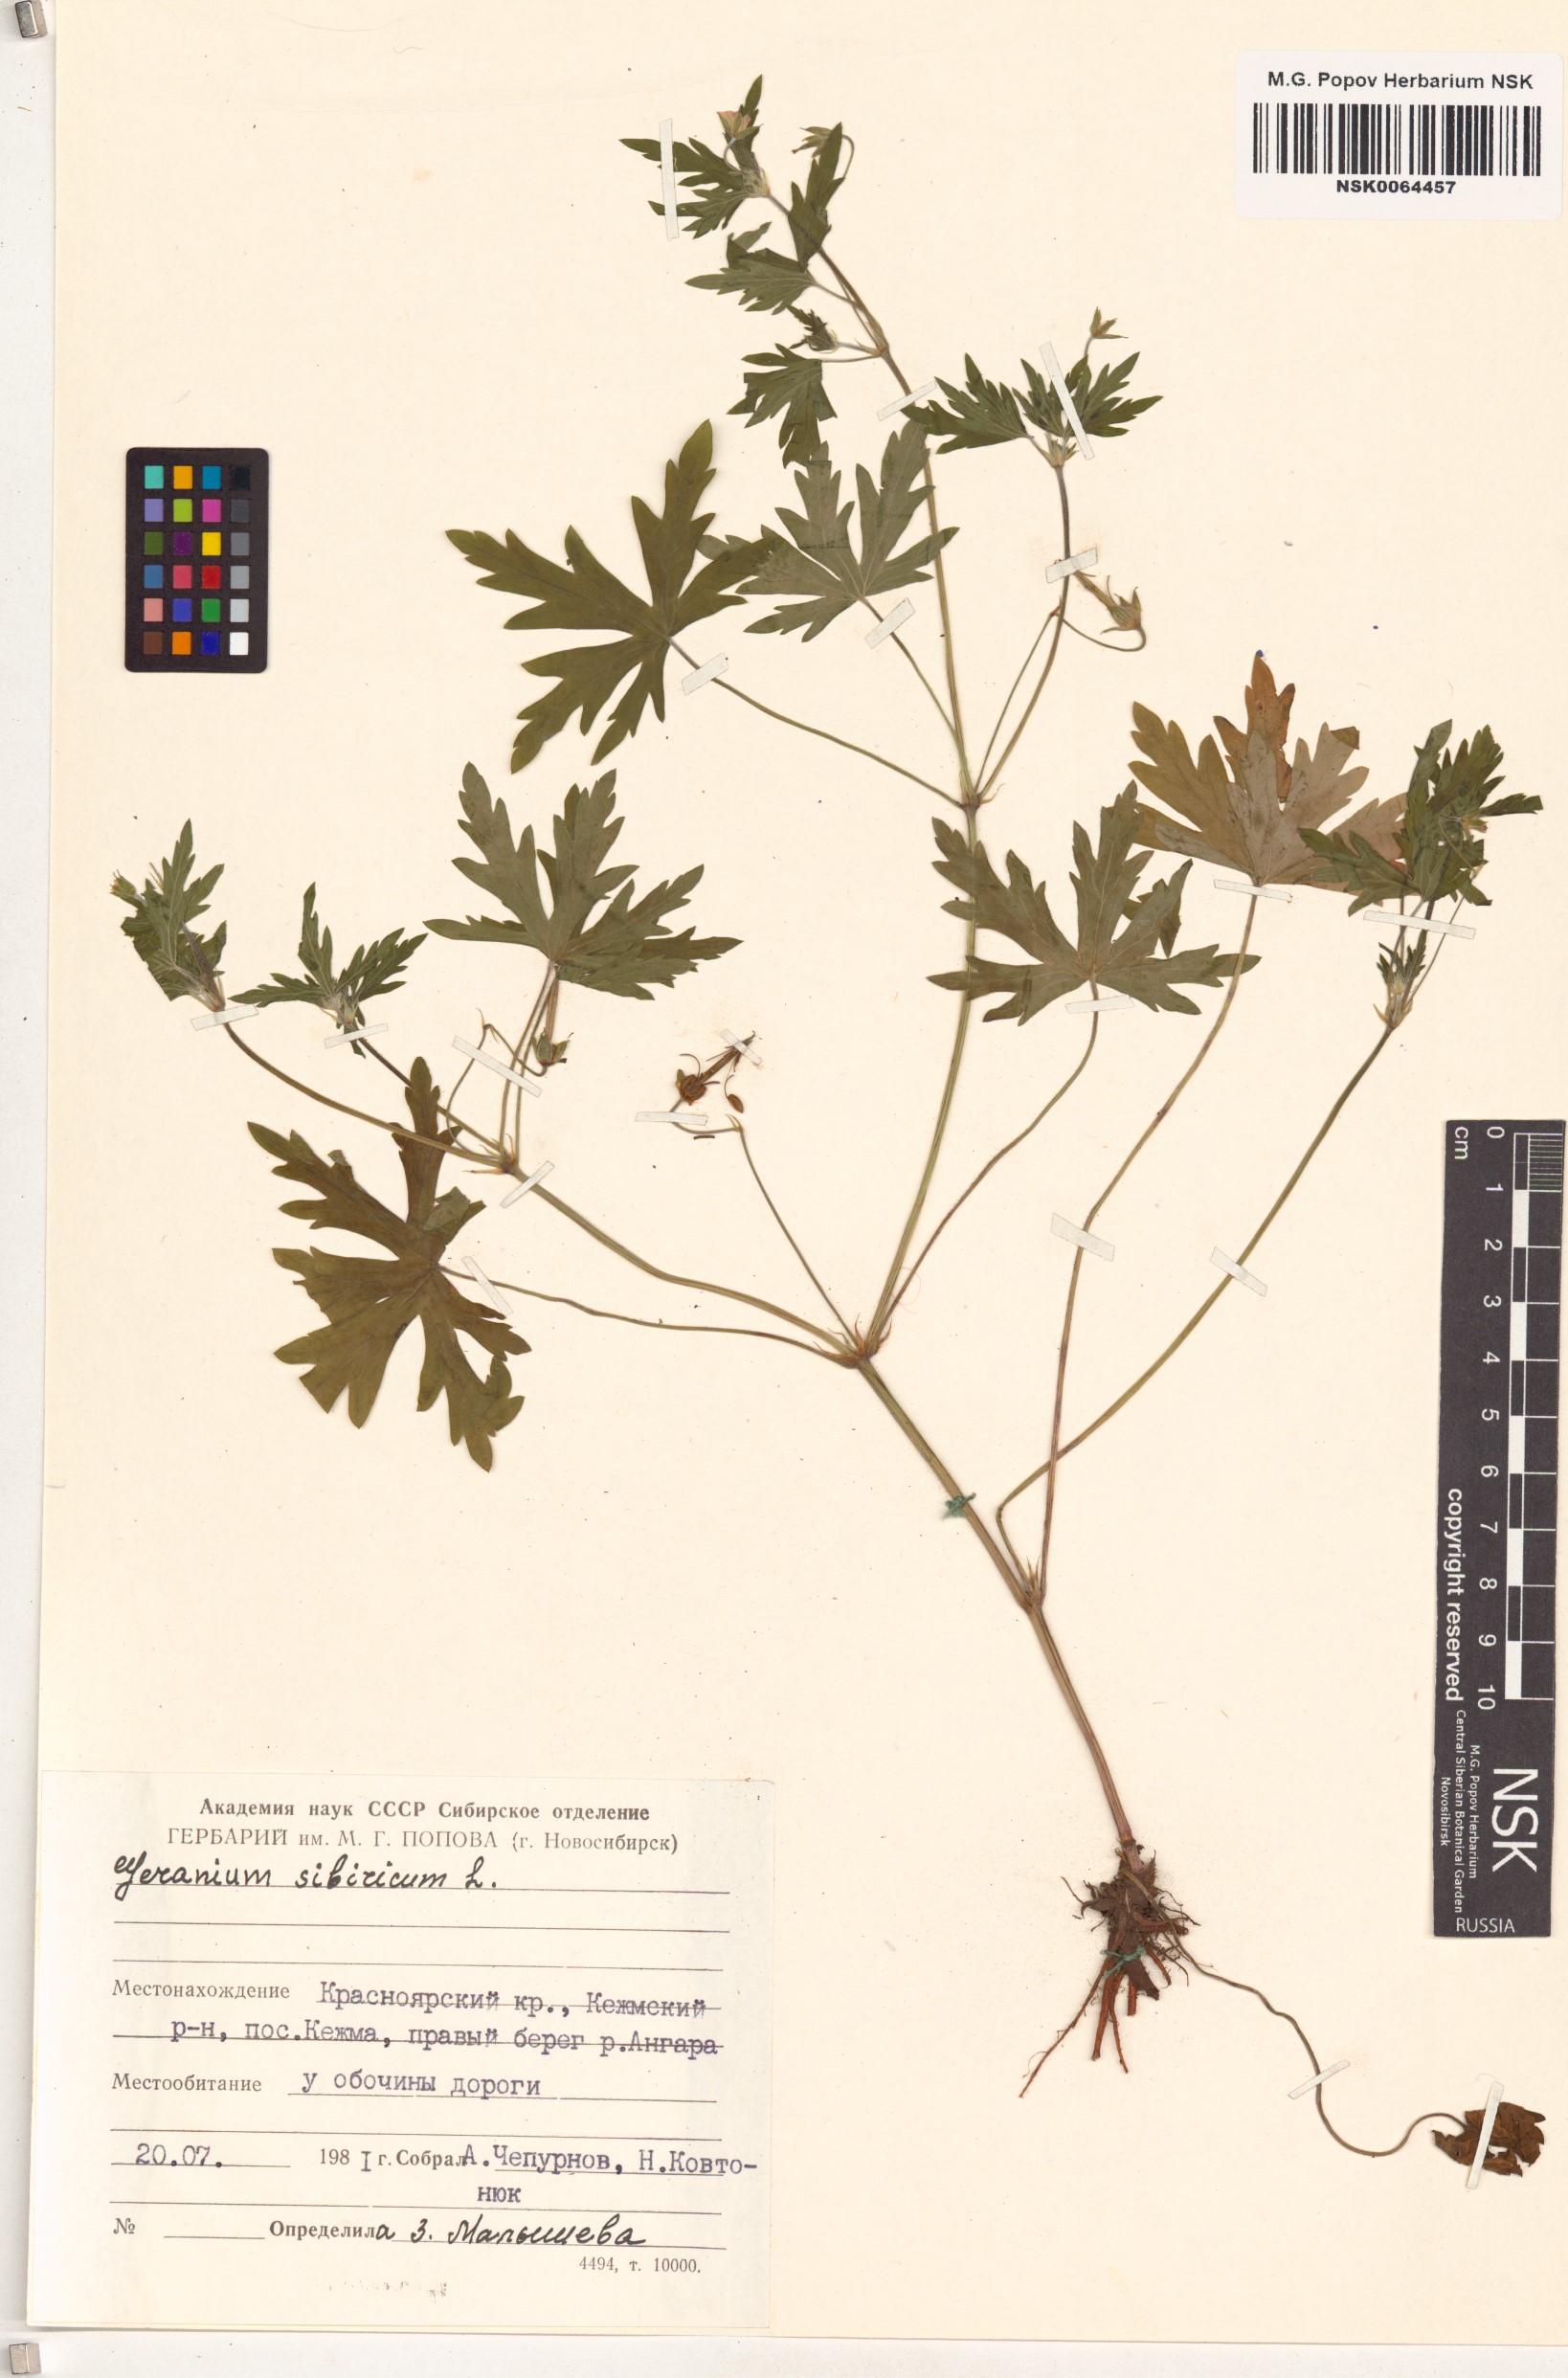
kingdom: Plantae
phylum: Tracheophyta
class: Magnoliopsida
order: Geraniales
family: Geraniaceae
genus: Geranium
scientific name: Geranium sibiricum
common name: Siberian crane's-bill
